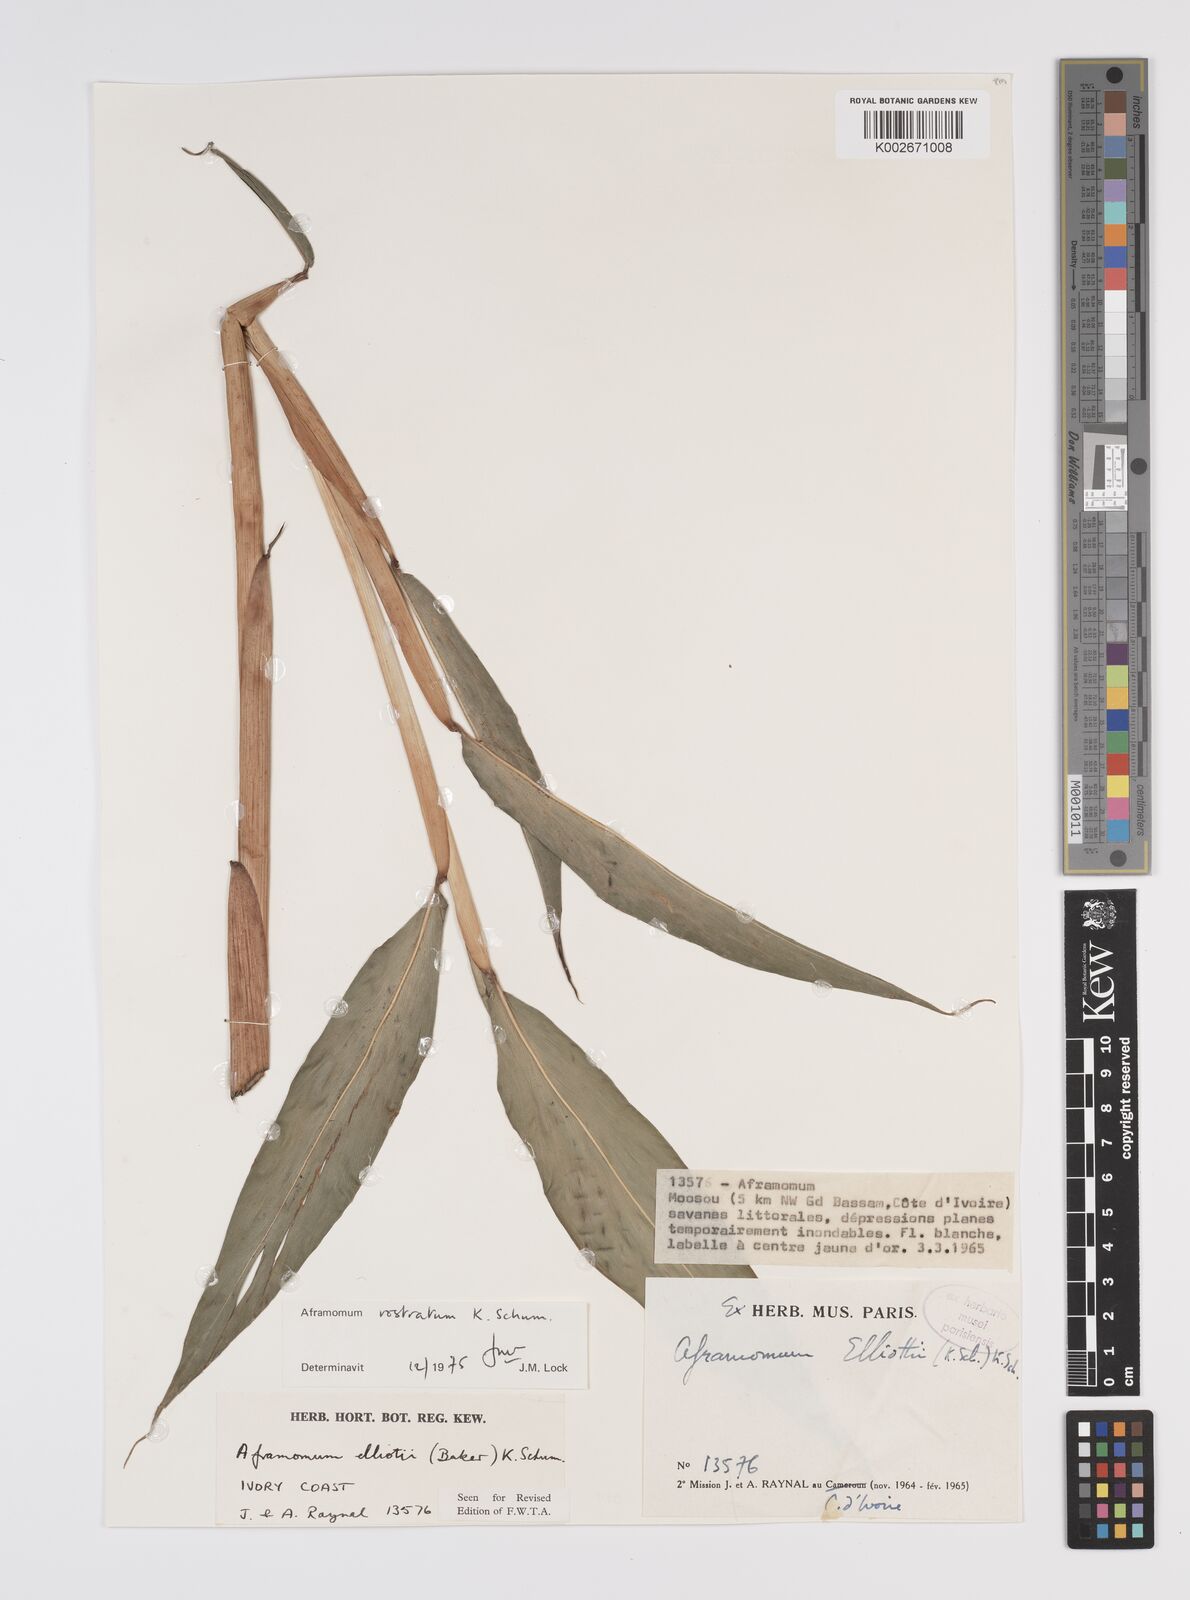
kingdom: Plantae
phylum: Tracheophyta
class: Liliopsida
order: Zingiberales
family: Zingiberaceae
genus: Aframomum
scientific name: Aframomum rostratum
